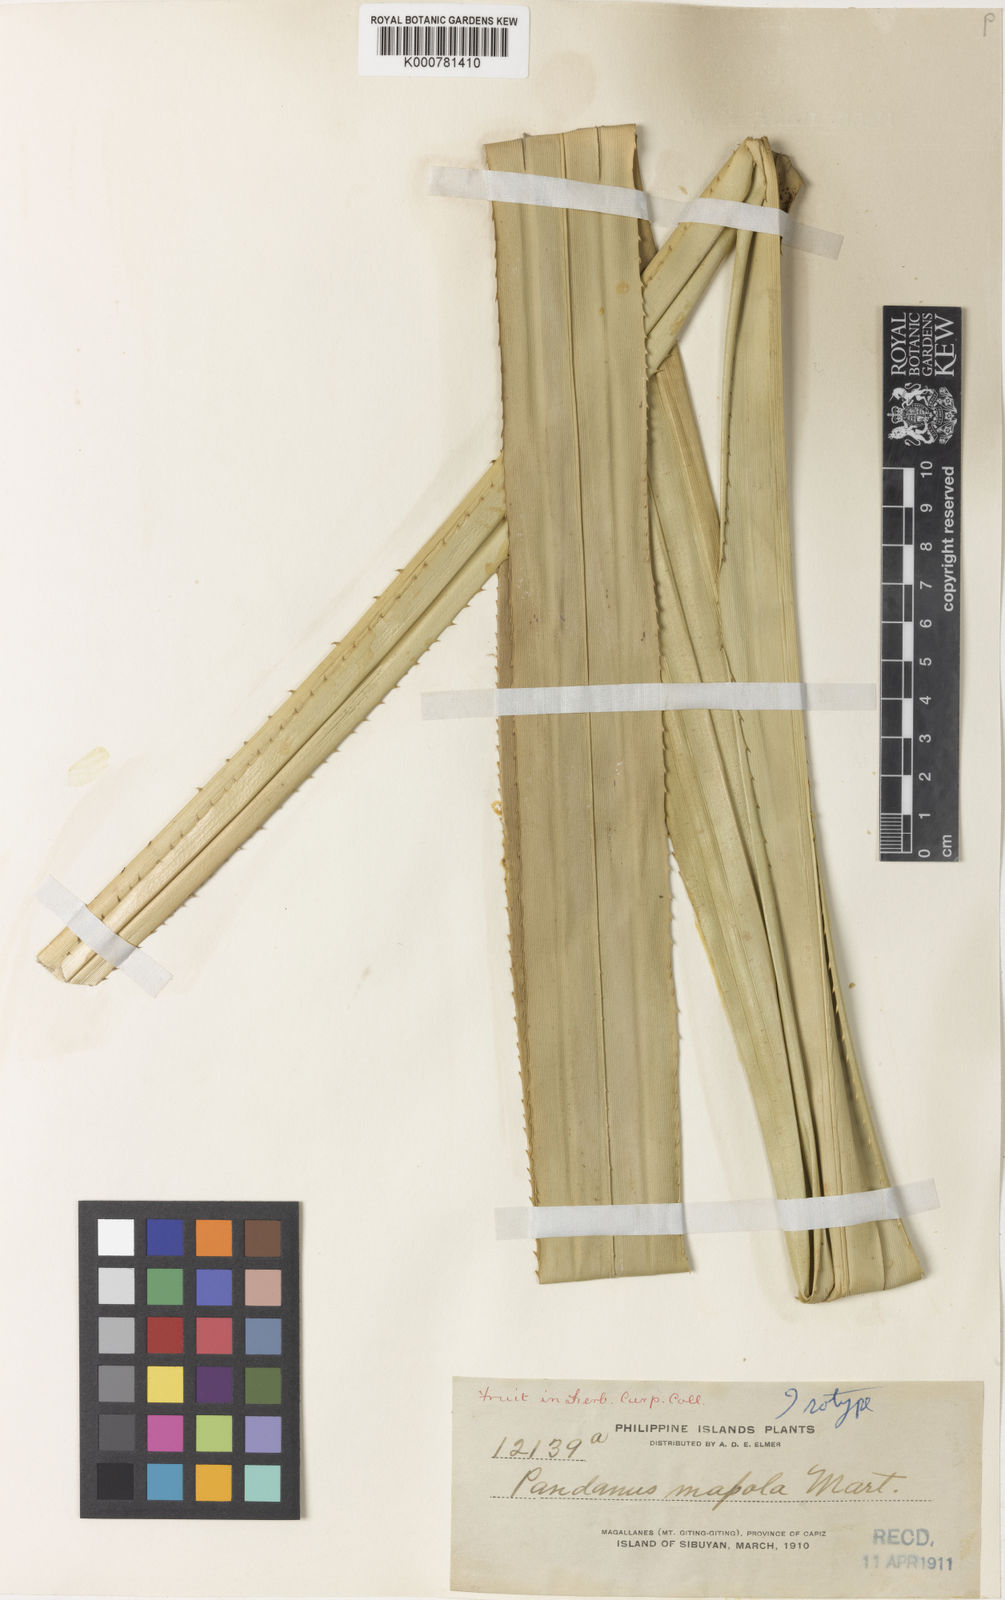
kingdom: Plantae
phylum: Tracheophyta
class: Liliopsida
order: Pandanales
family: Pandanaceae
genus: Pandanus
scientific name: Pandanus mapola
